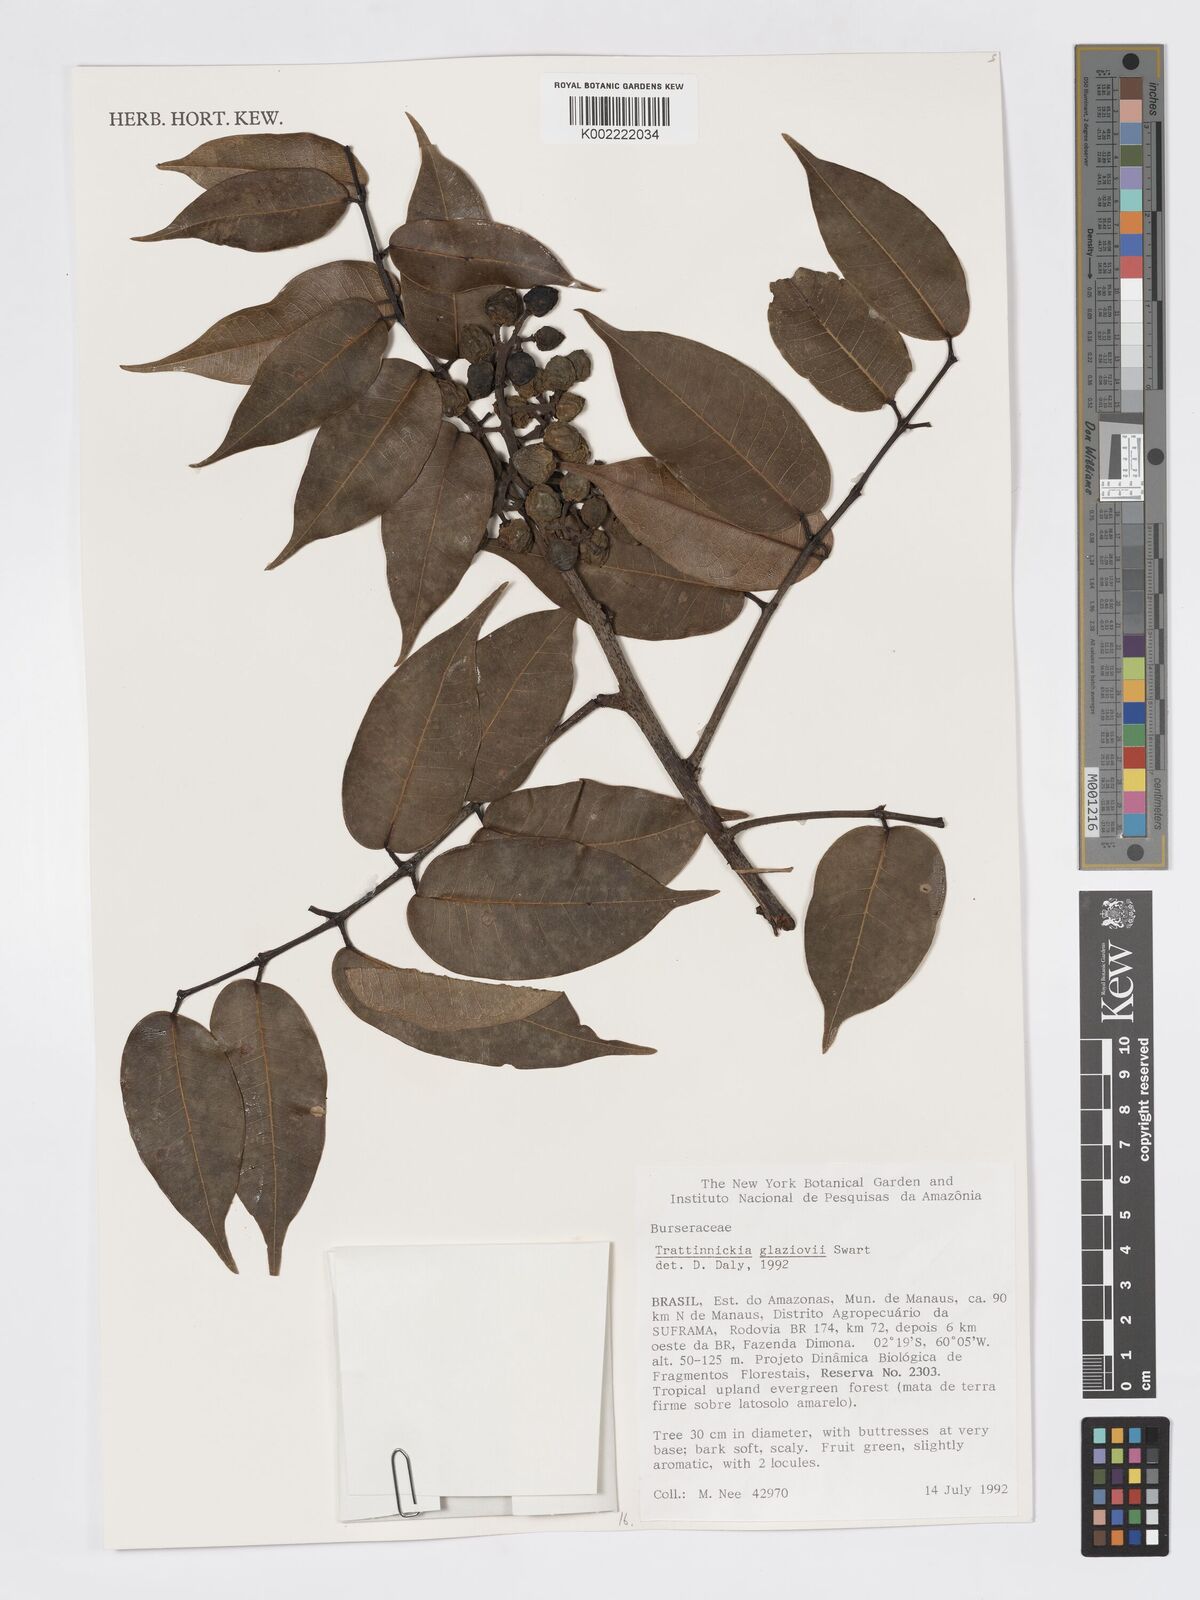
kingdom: Plantae
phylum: Tracheophyta
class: Magnoliopsida
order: Sapindales
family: Burseraceae
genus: Trattinnickia
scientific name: Trattinnickia glaziovii
